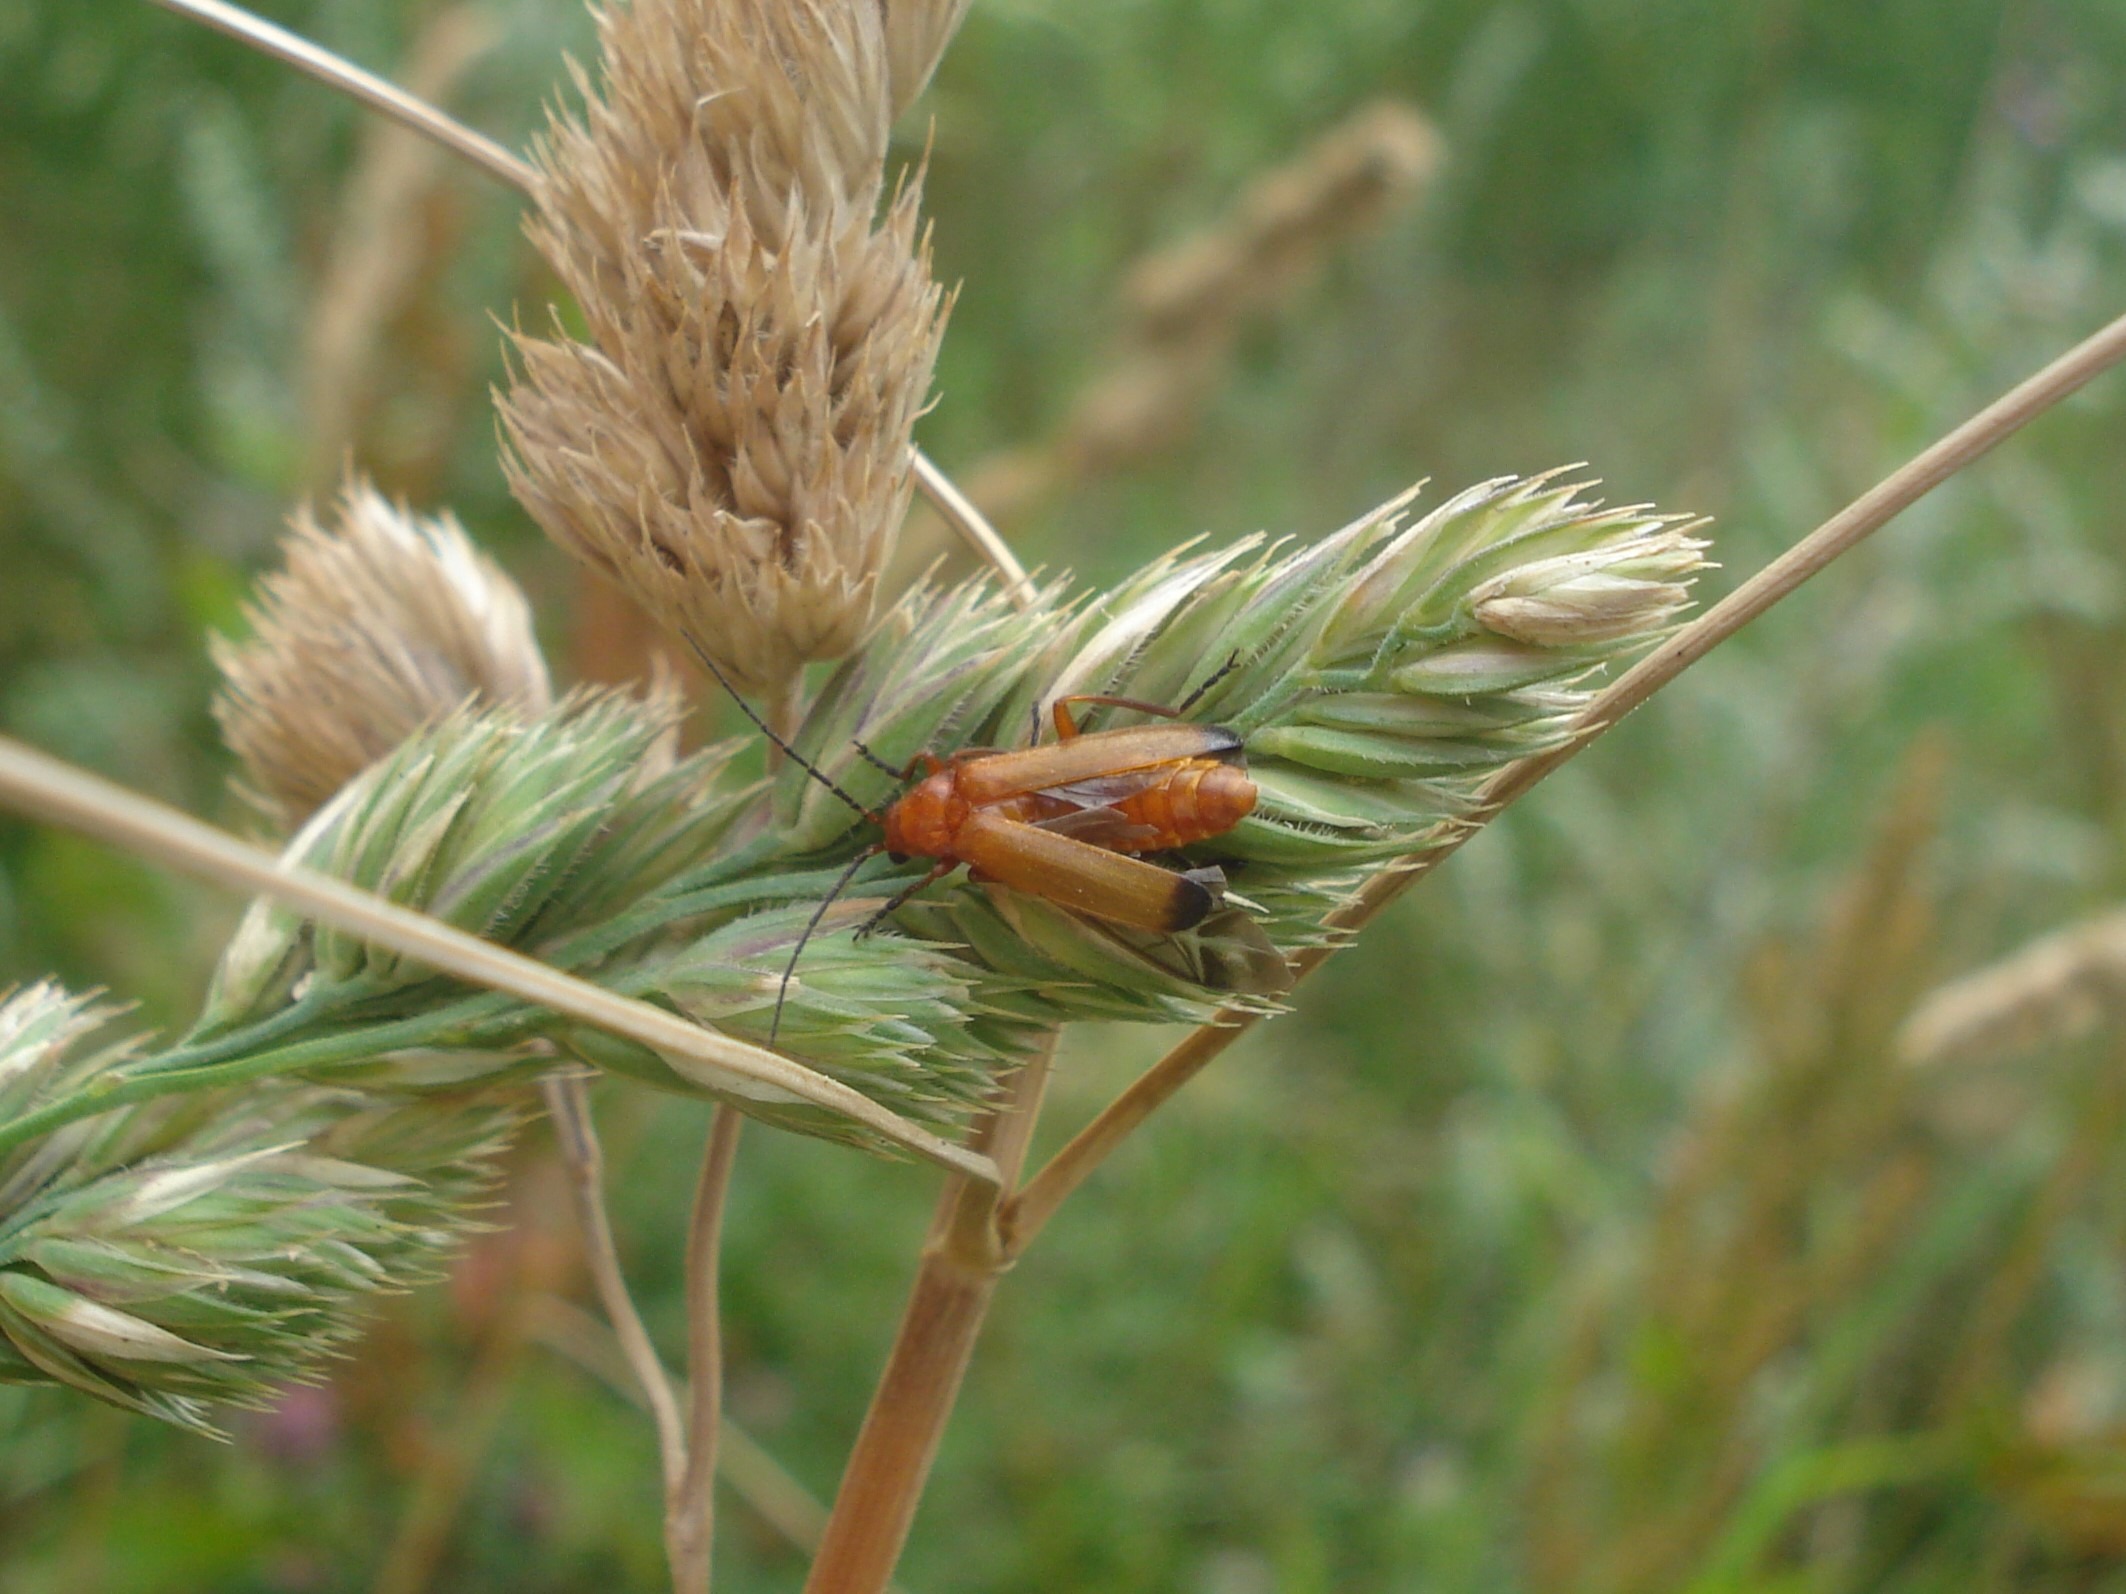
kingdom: Animalia
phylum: Arthropoda
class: Insecta
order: Coleoptera
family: Cantharidae
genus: Rhagonycha
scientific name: Rhagonycha fulva
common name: Præstebille
